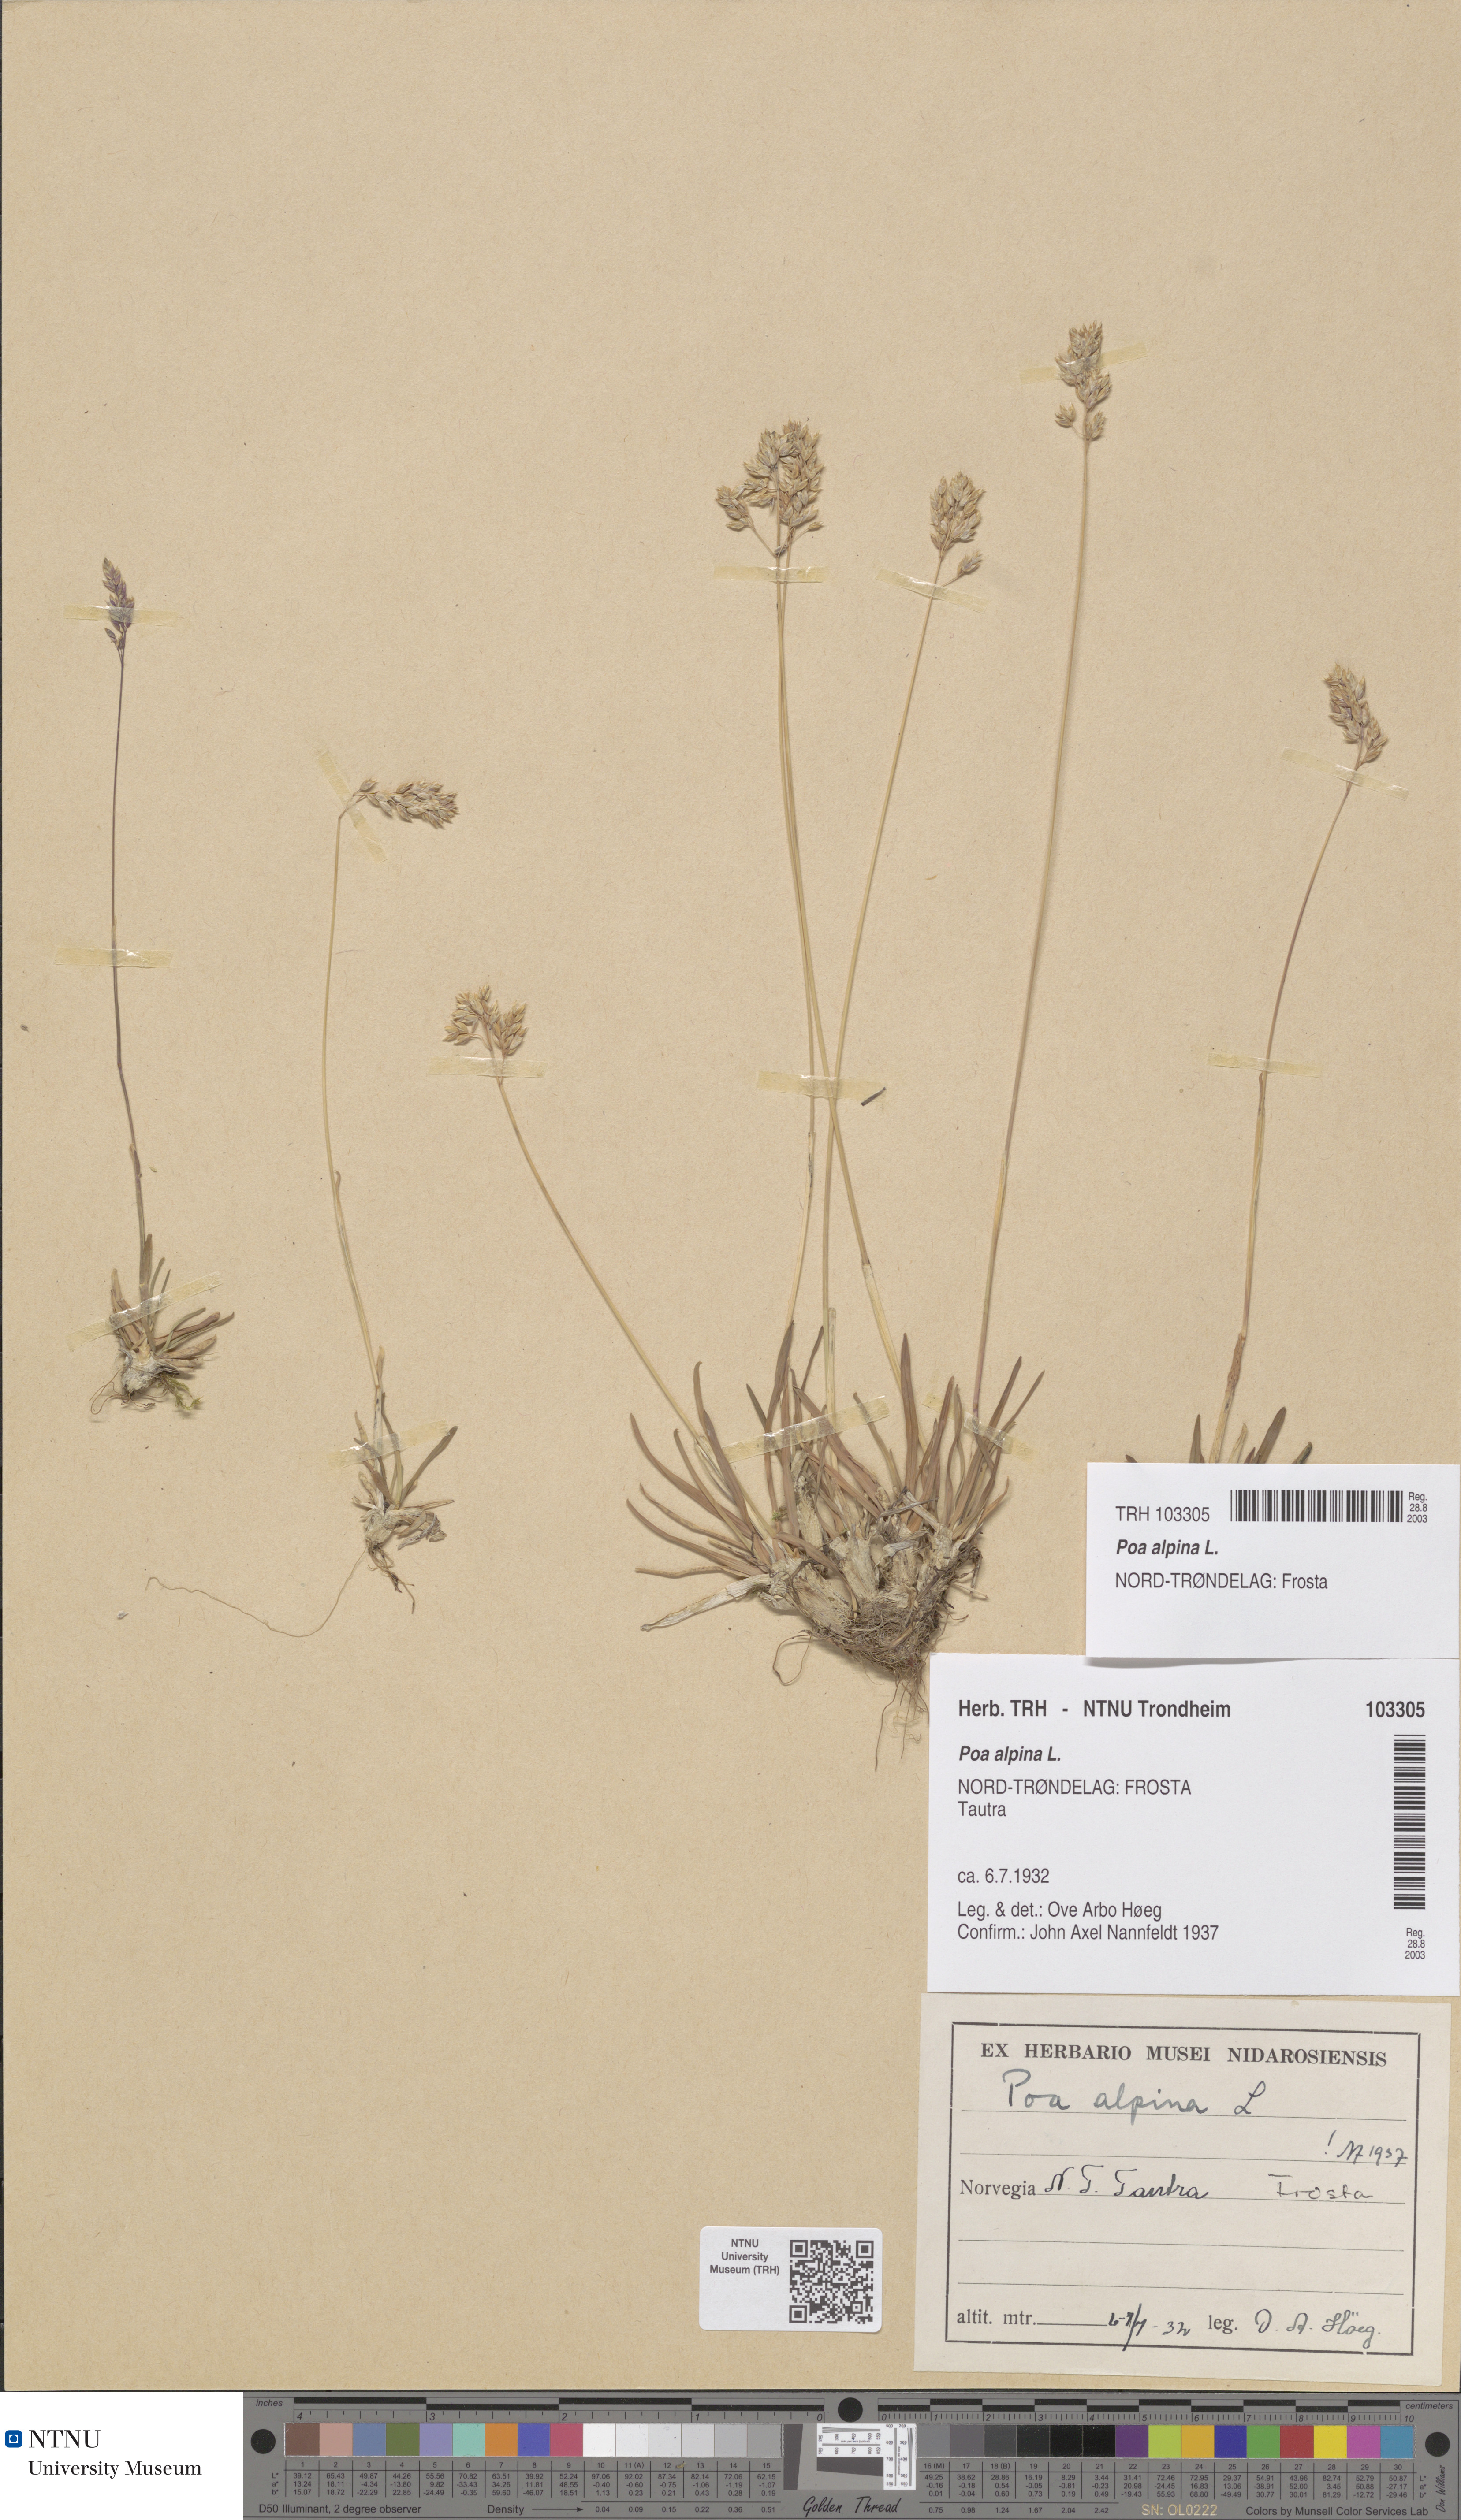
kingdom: Plantae
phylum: Tracheophyta
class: Liliopsida
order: Poales
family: Poaceae
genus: Poa
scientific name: Poa alpina
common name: Alpine bluegrass
